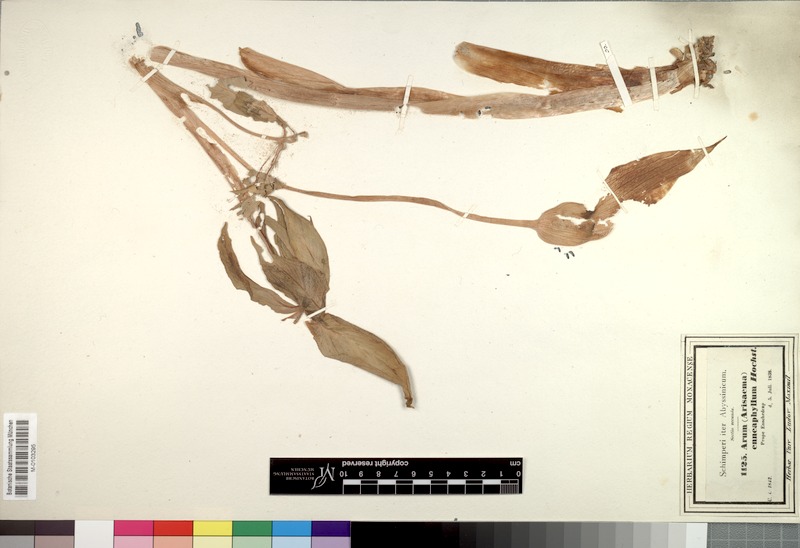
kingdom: Plantae
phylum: Tracheophyta
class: Liliopsida
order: Alismatales
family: Araceae
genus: Arisaema
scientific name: Arisaema enneaphyllum
